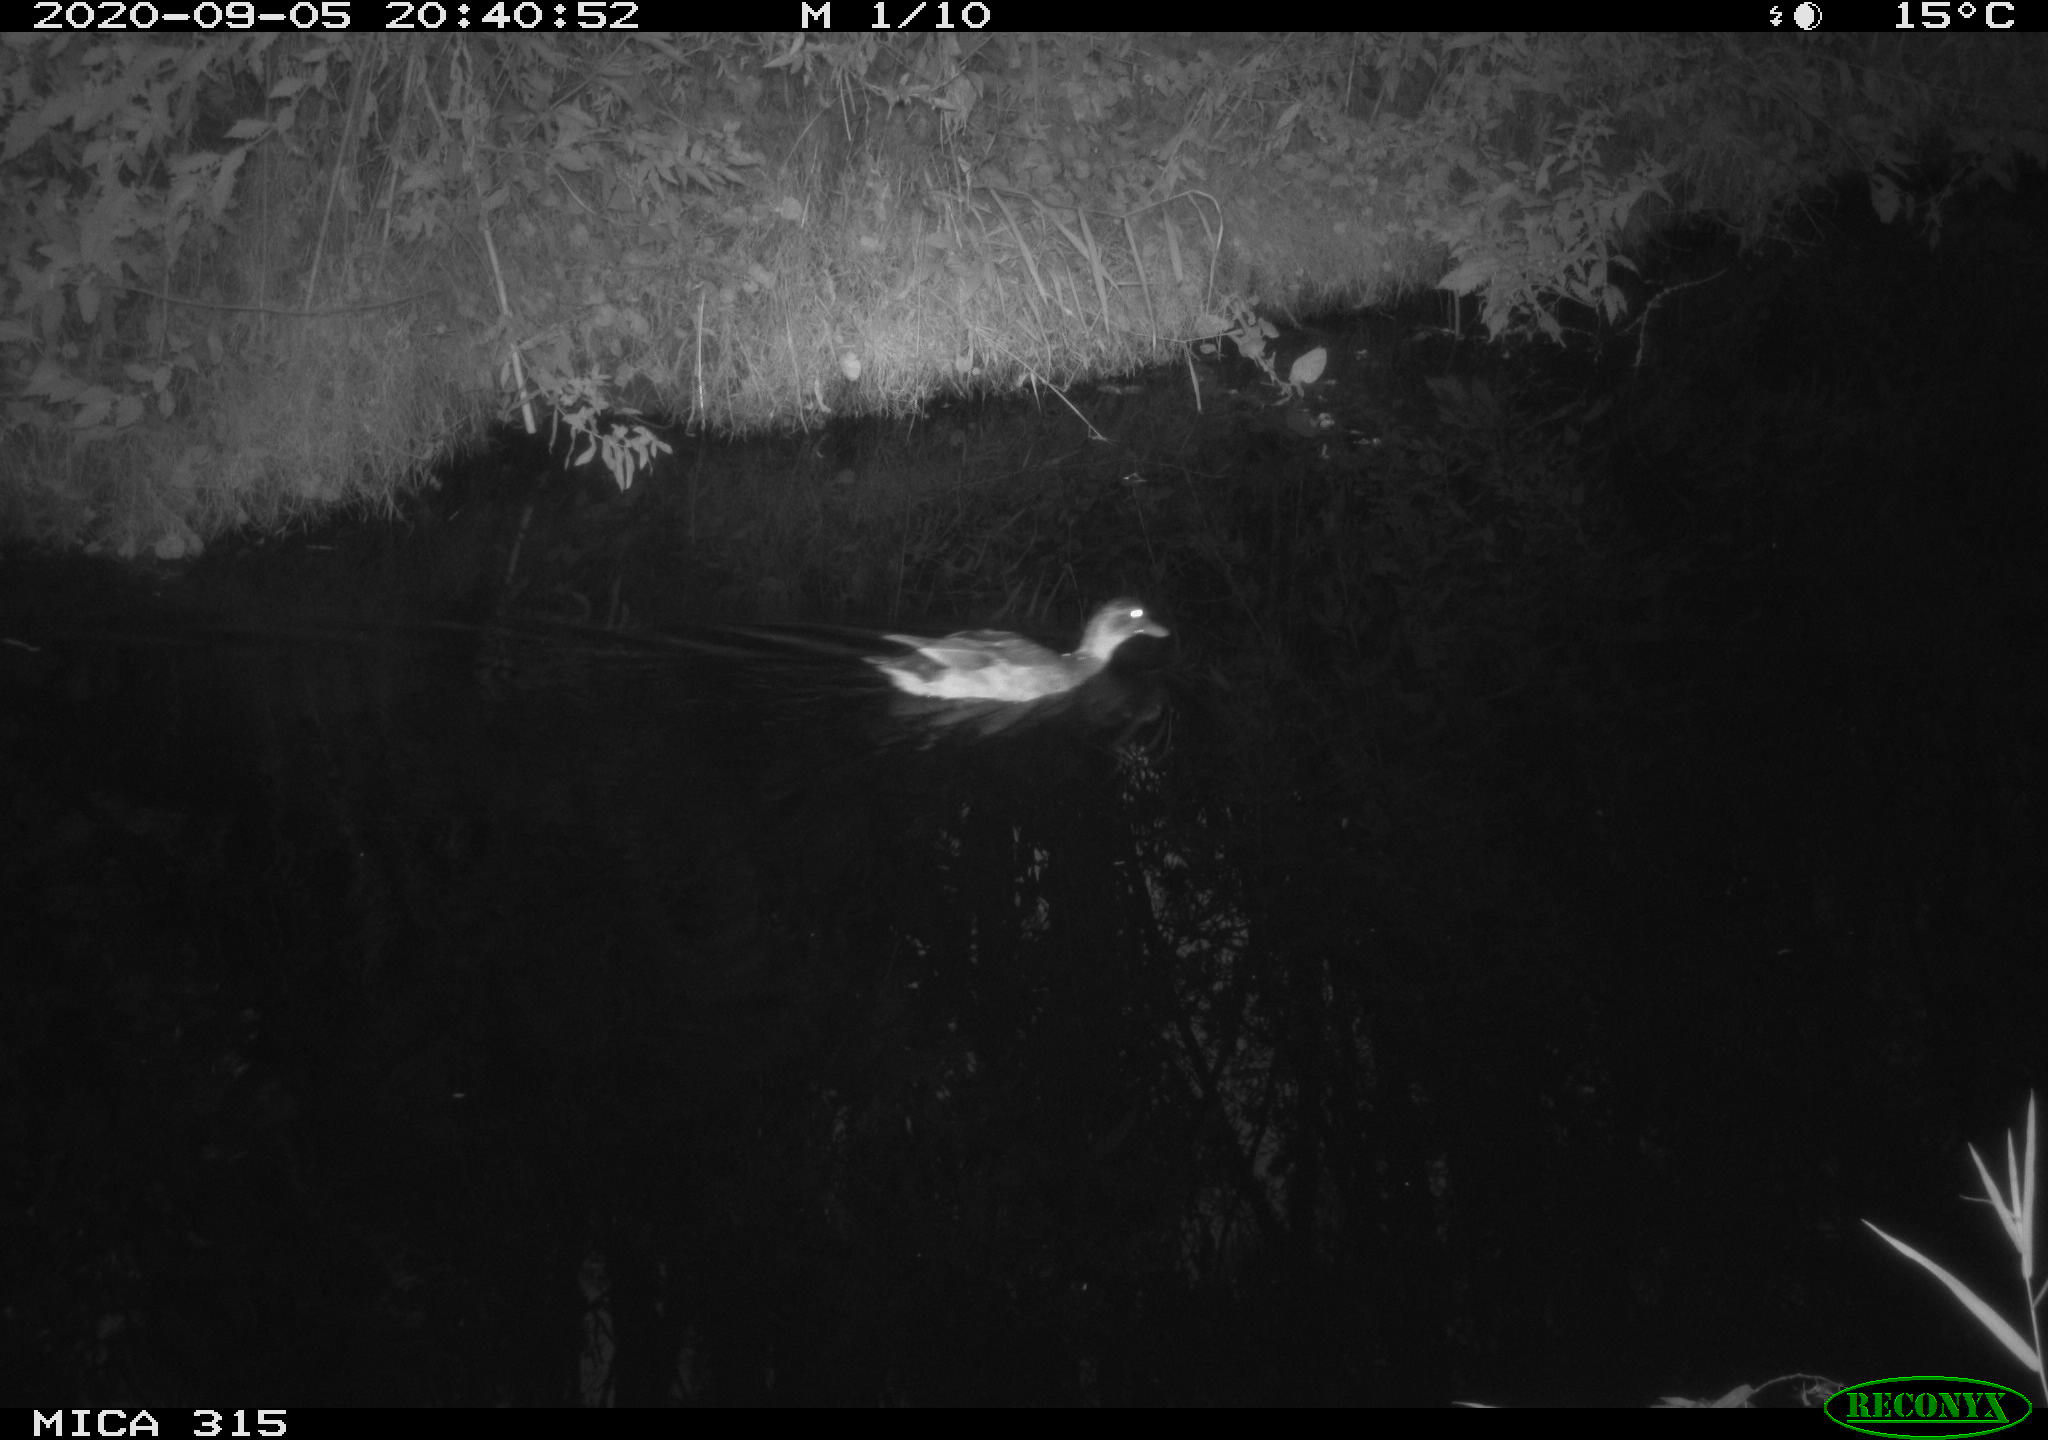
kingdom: Animalia
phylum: Chordata
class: Aves
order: Anseriformes
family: Anatidae
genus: Anas
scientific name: Anas platyrhynchos
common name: Mallard
